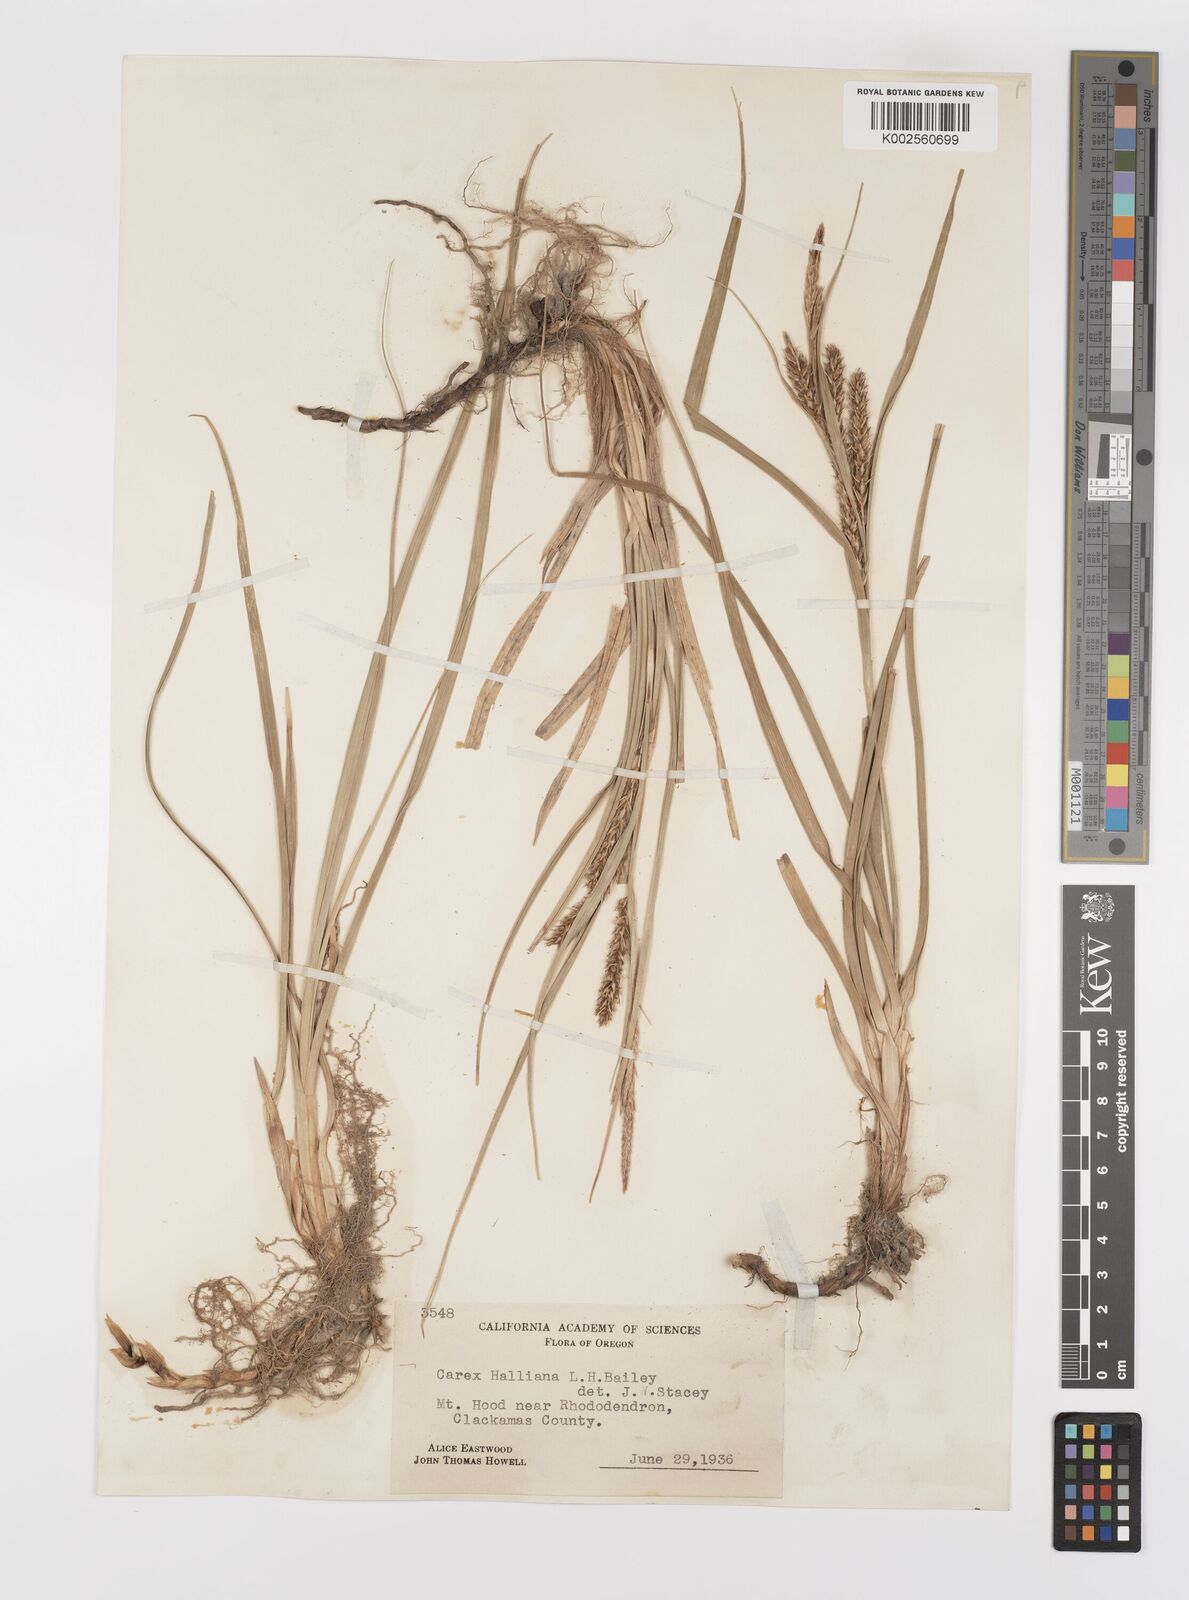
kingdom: Plantae
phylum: Tracheophyta
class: Liliopsida
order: Poales
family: Cyperaceae
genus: Carex
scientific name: Carex halliana
